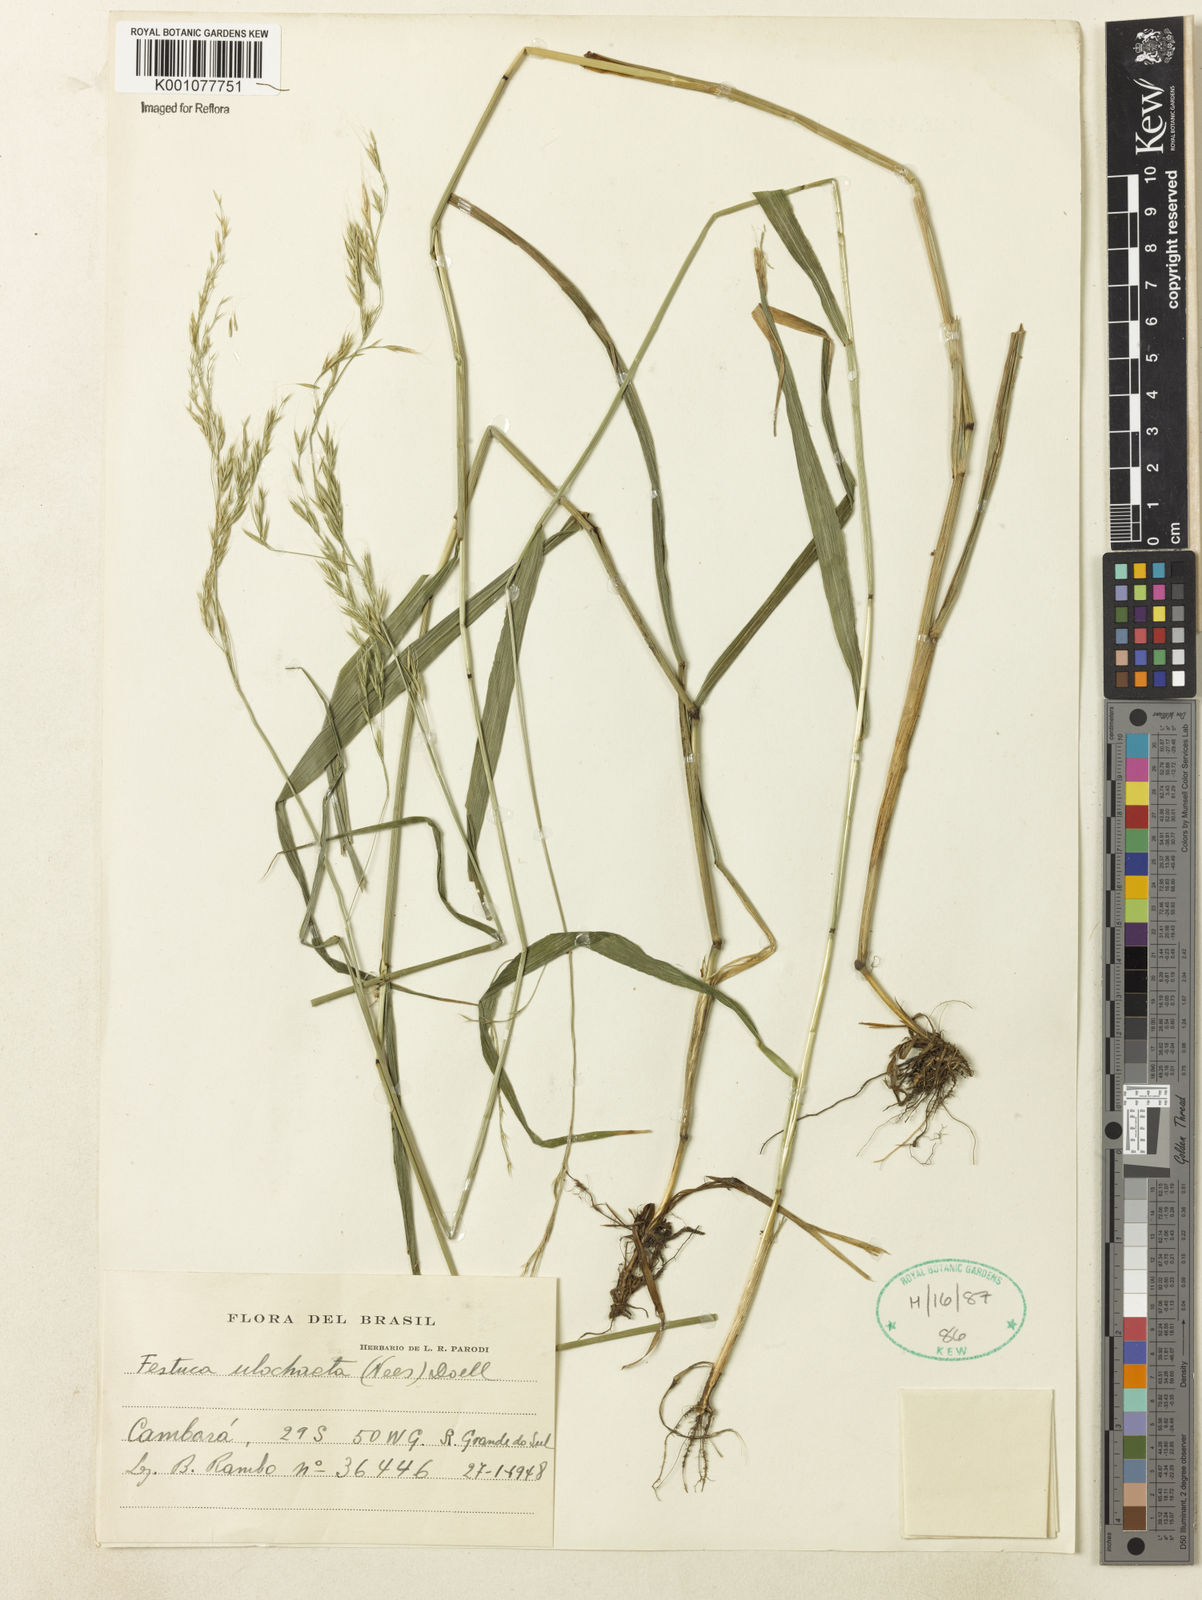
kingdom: Plantae
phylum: Tracheophyta
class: Liliopsida
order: Poales
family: Poaceae
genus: Festuca
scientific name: Festuca ulochaeta
